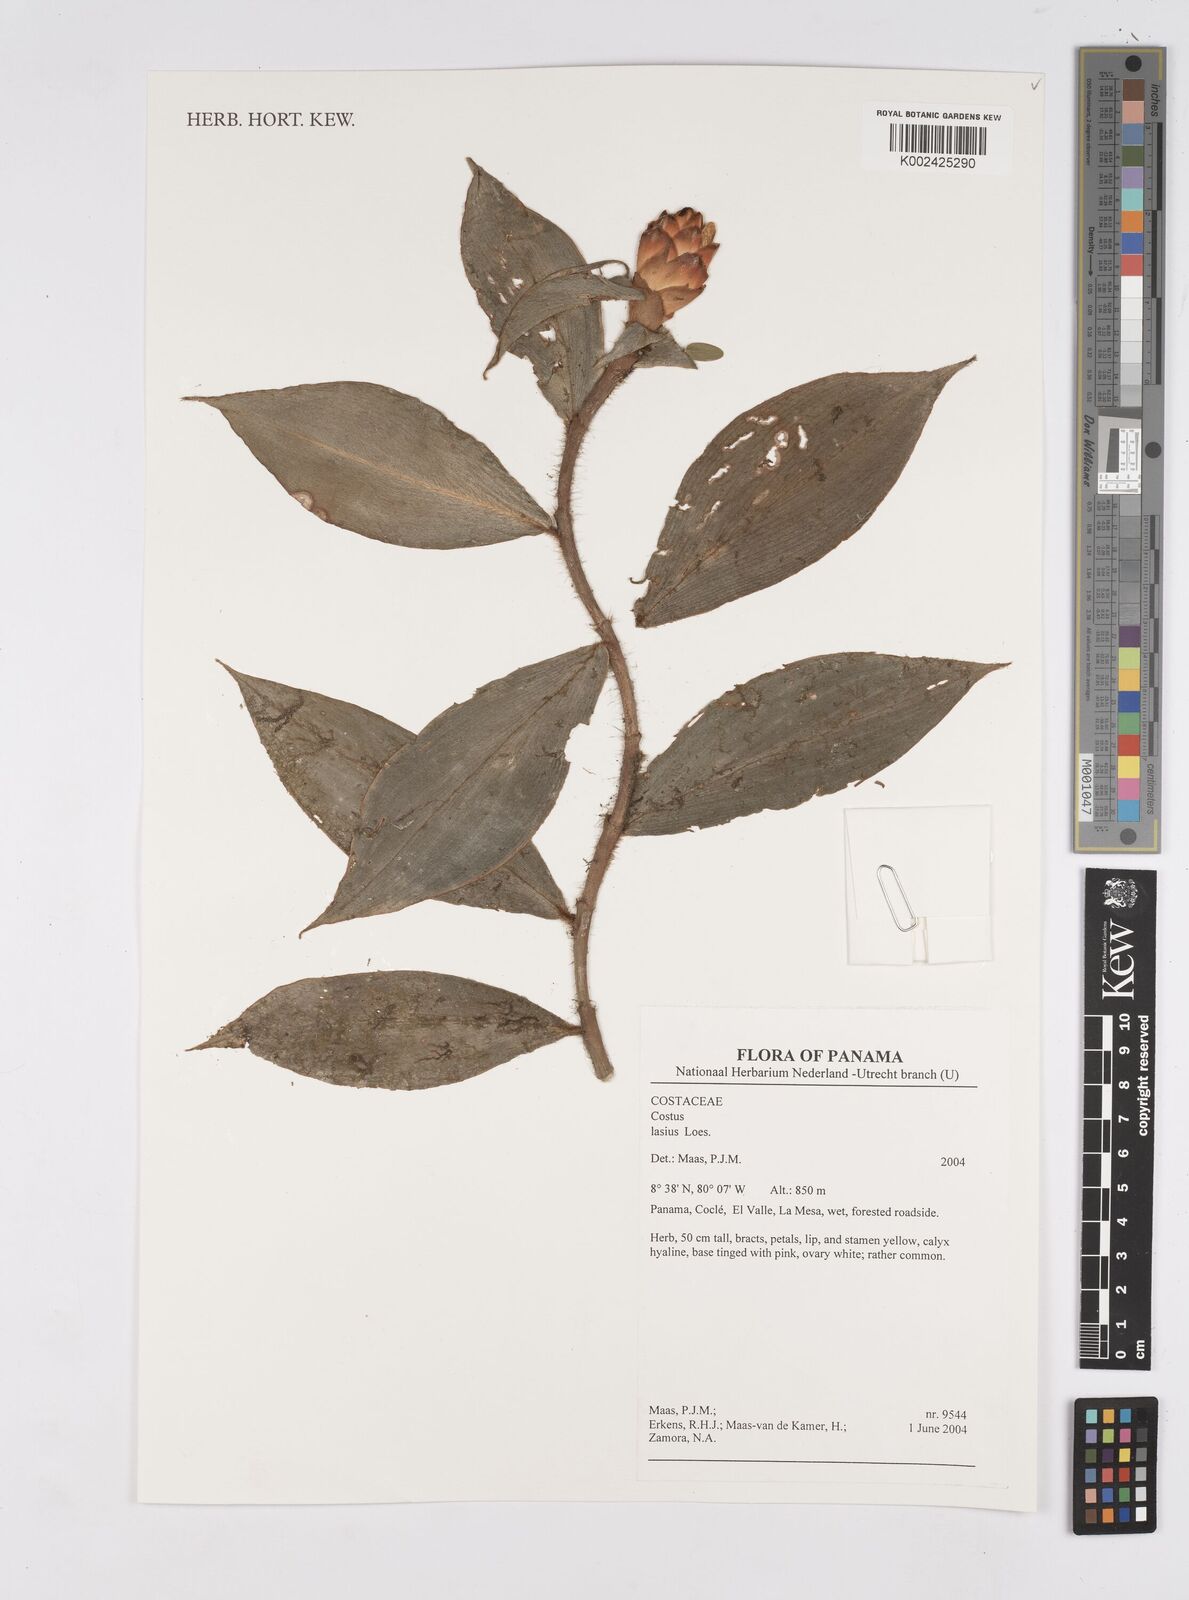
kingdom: Plantae
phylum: Tracheophyta
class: Liliopsida
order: Zingiberales
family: Costaceae
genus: Costus
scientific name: Costus lasius
